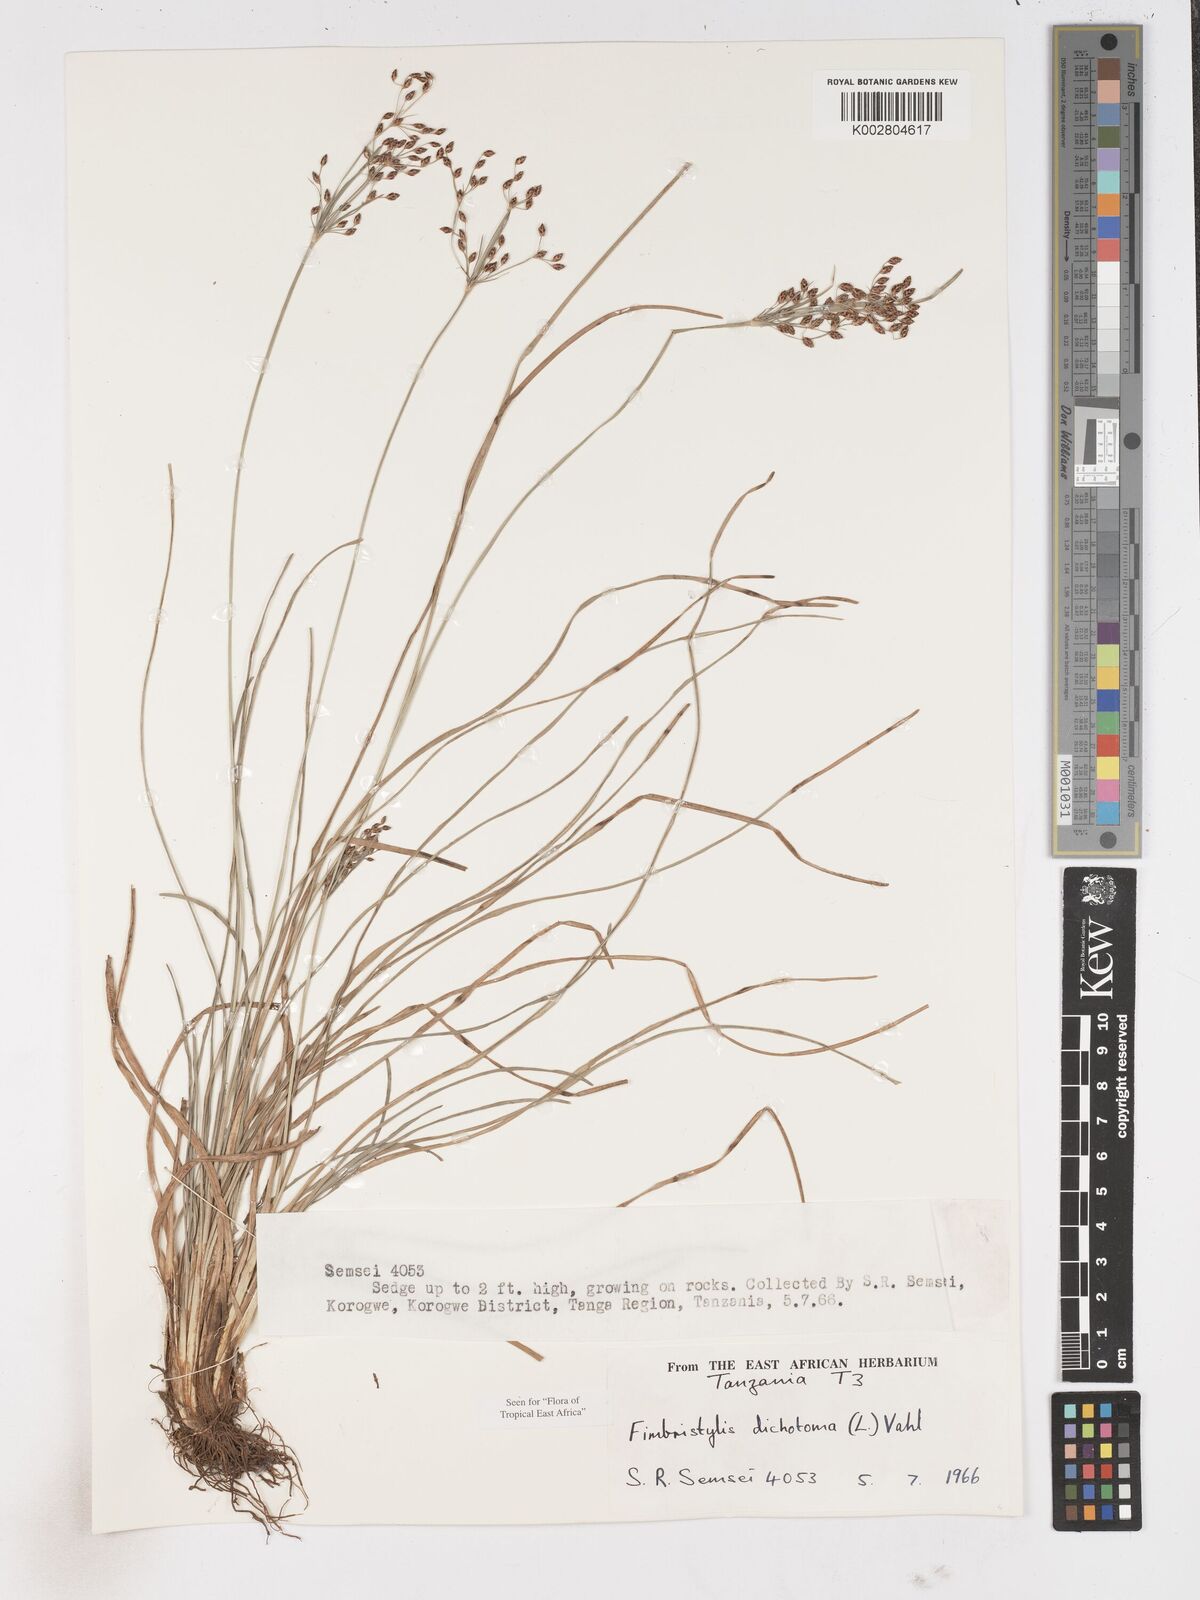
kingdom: Plantae
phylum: Tracheophyta
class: Liliopsida
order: Poales
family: Cyperaceae
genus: Fimbristylis
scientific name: Fimbristylis dichotoma
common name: Forked fimbry
